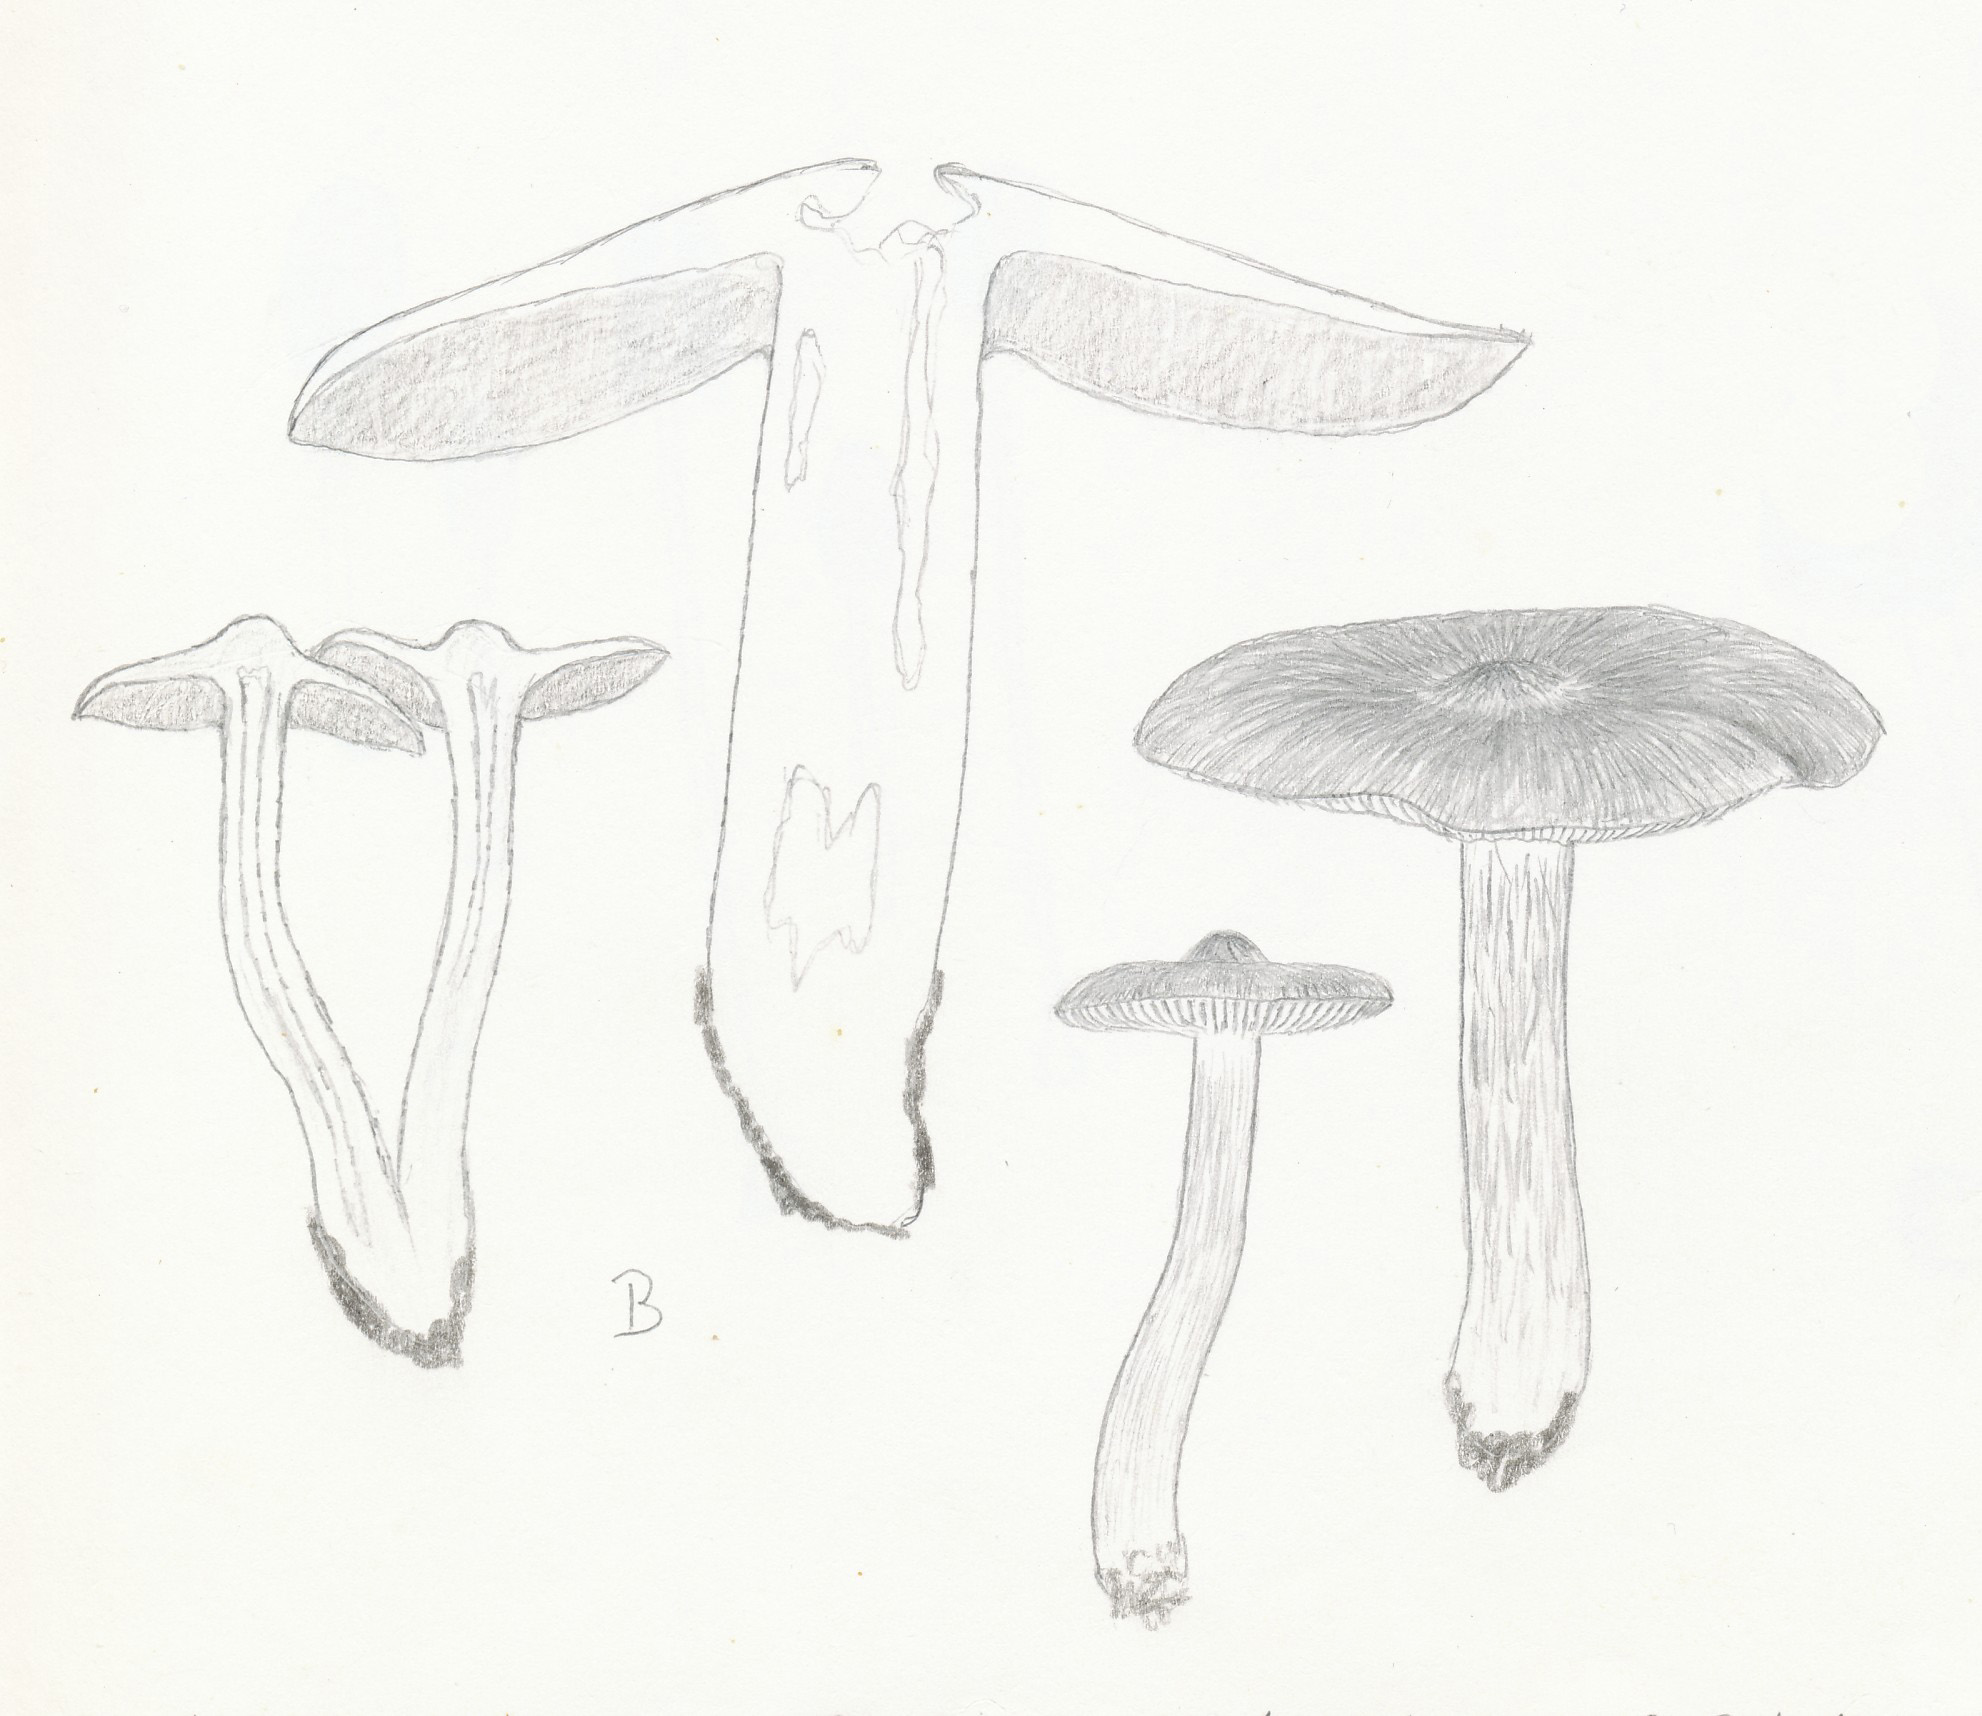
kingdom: Fungi
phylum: Basidiomycota
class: Agaricomycetes
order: Agaricales
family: Entolomataceae
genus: Entoloma
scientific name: Entoloma clypeatum
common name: flammet rødblad
